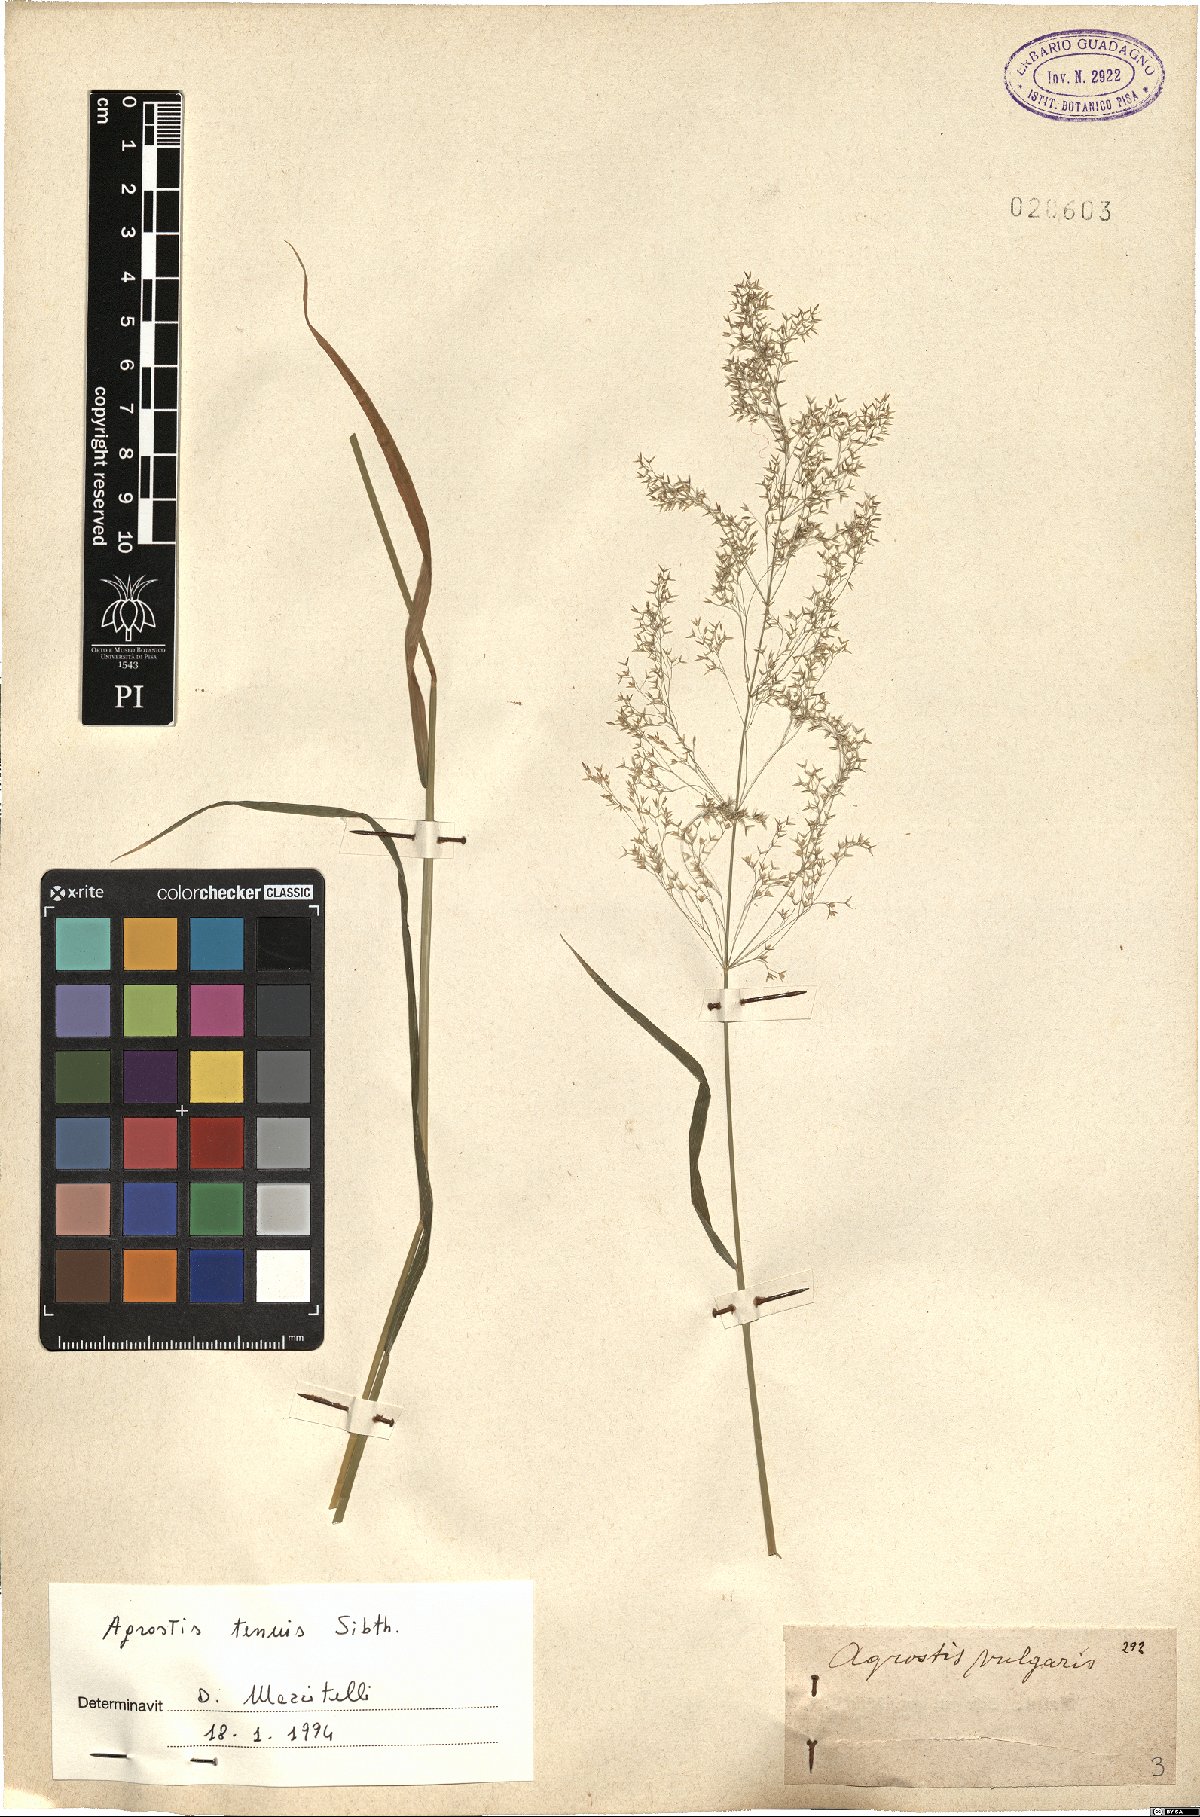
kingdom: Plantae
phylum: Tracheophyta
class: Liliopsida
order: Poales
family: Poaceae
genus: Agrostis
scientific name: Agrostis capillaris
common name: Colonial bentgrass
